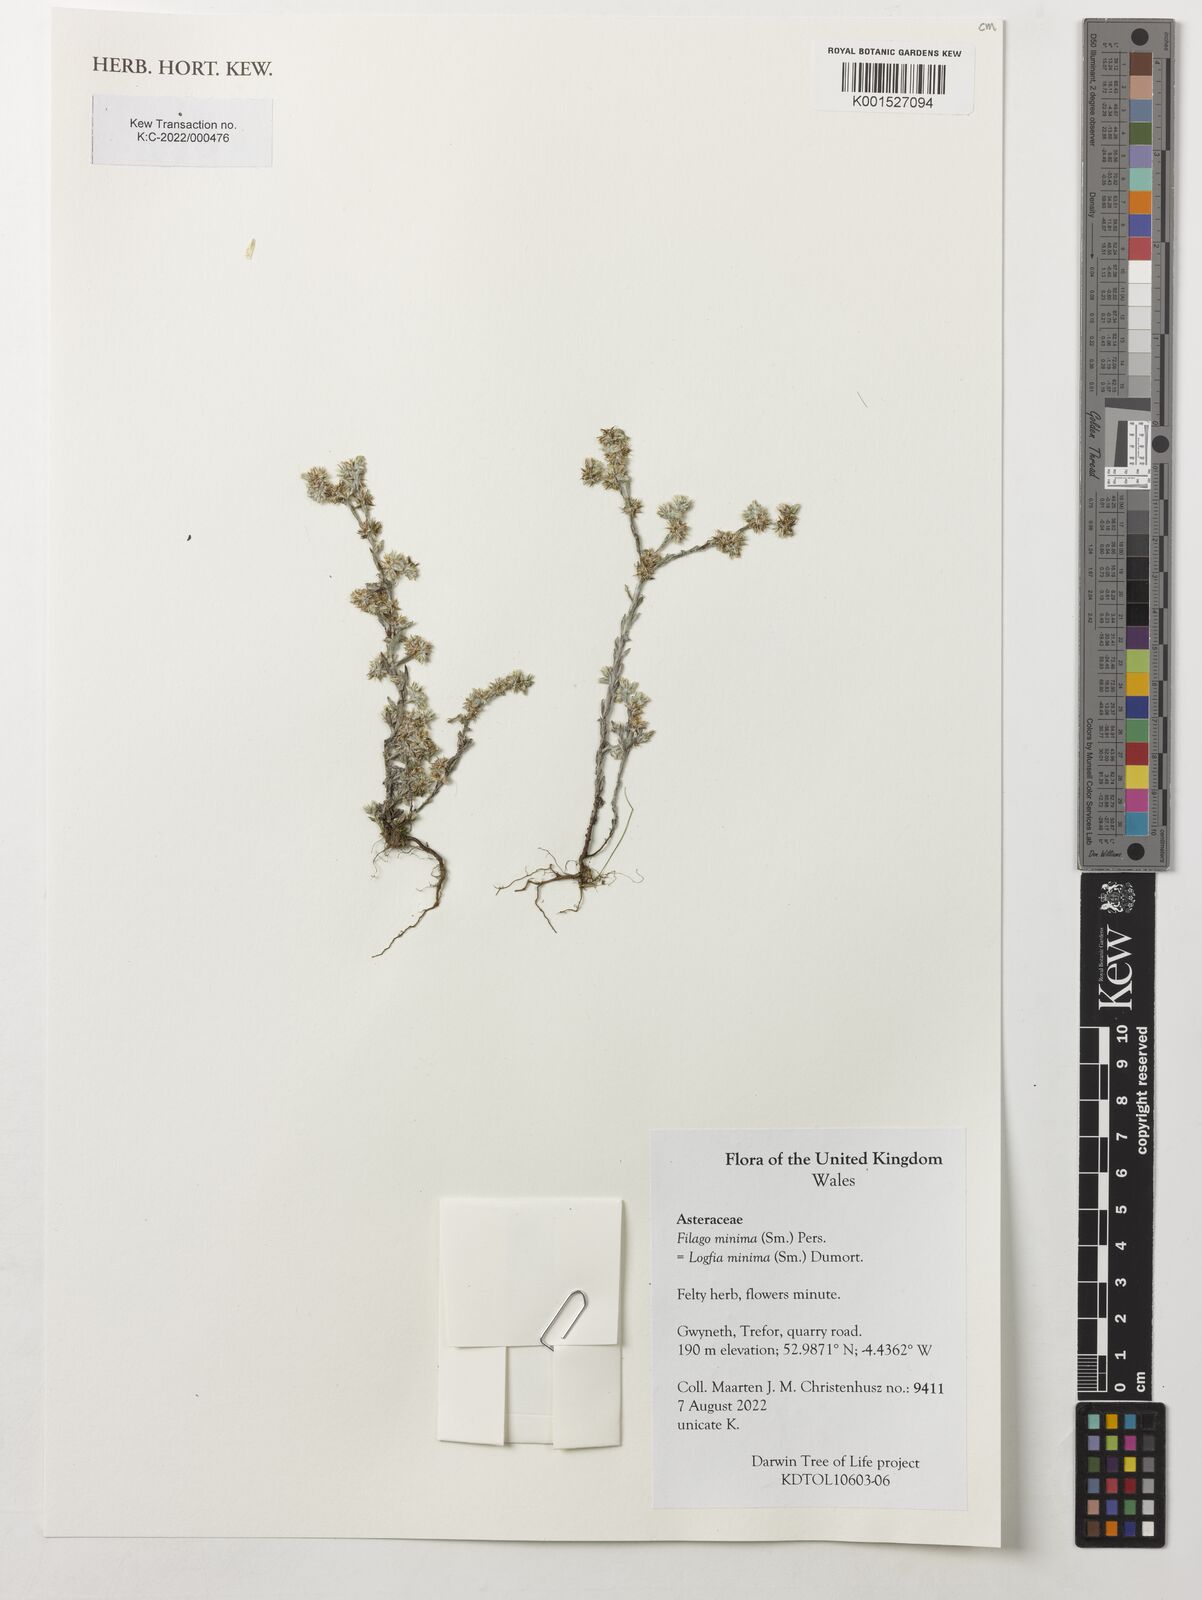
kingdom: Plantae
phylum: Tracheophyta
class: Magnoliopsida
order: Asterales
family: Asteraceae
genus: Logfia
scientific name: Logfia minima
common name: Little cottonrose
